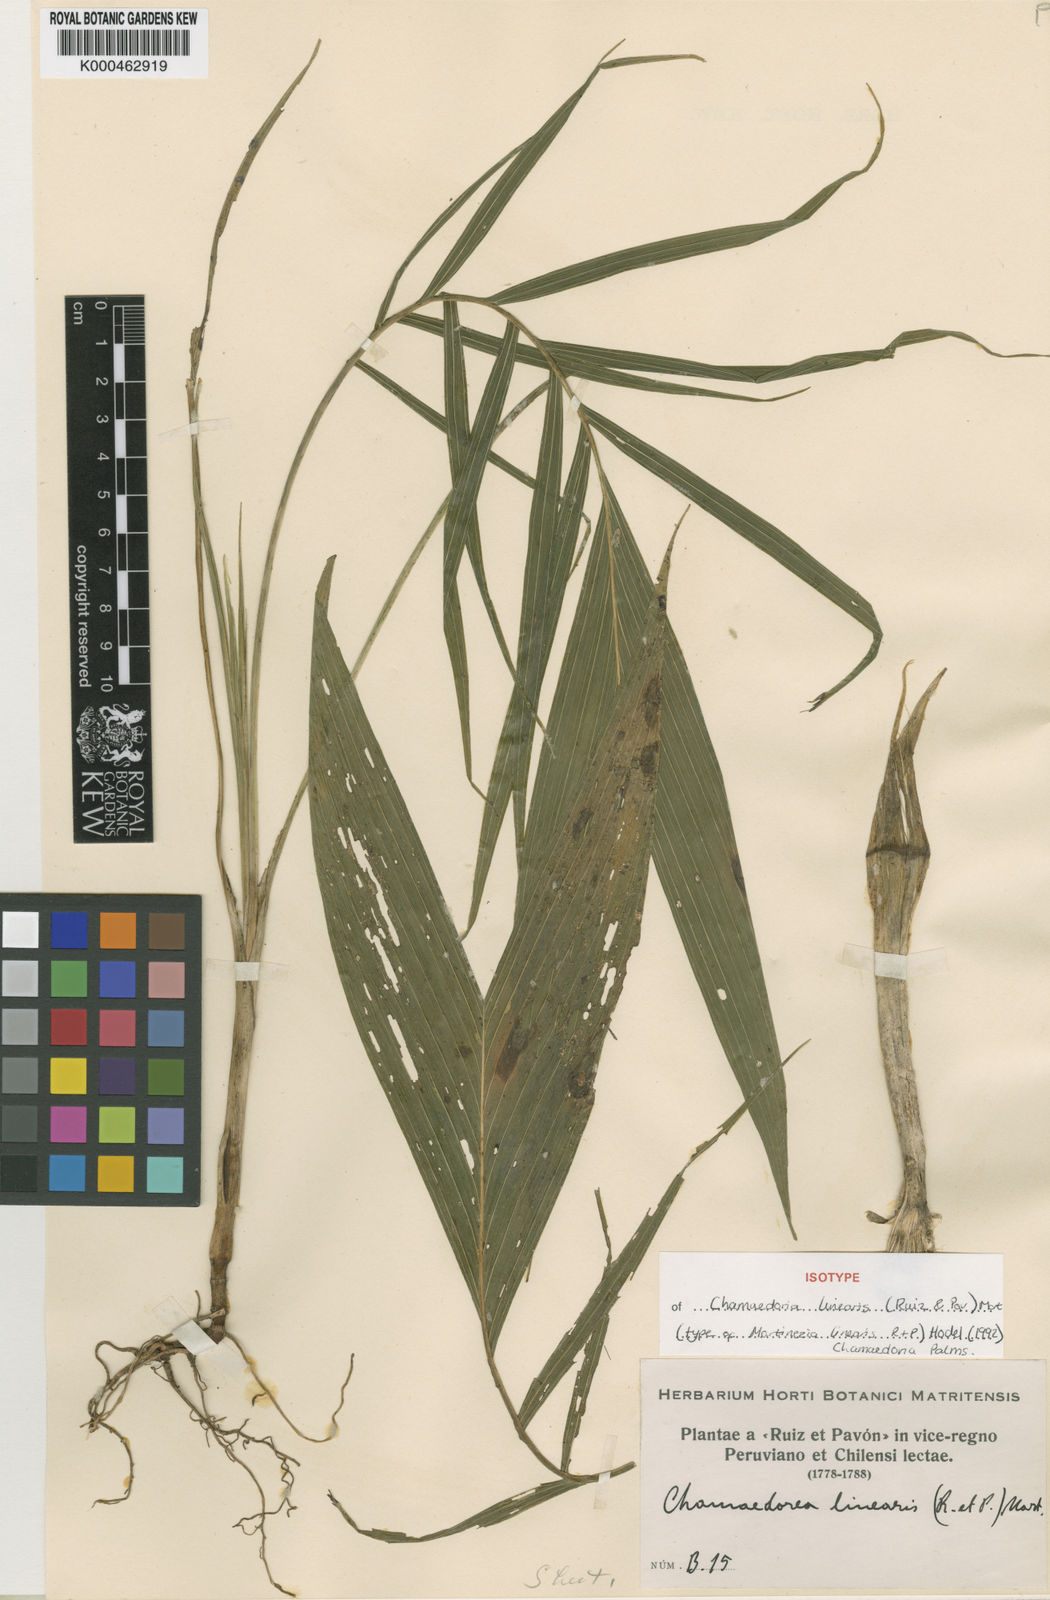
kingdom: Plantae
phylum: Tracheophyta
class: Liliopsida
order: Arecales
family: Arecaceae
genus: Chamaedorea
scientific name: Chamaedorea linearis
